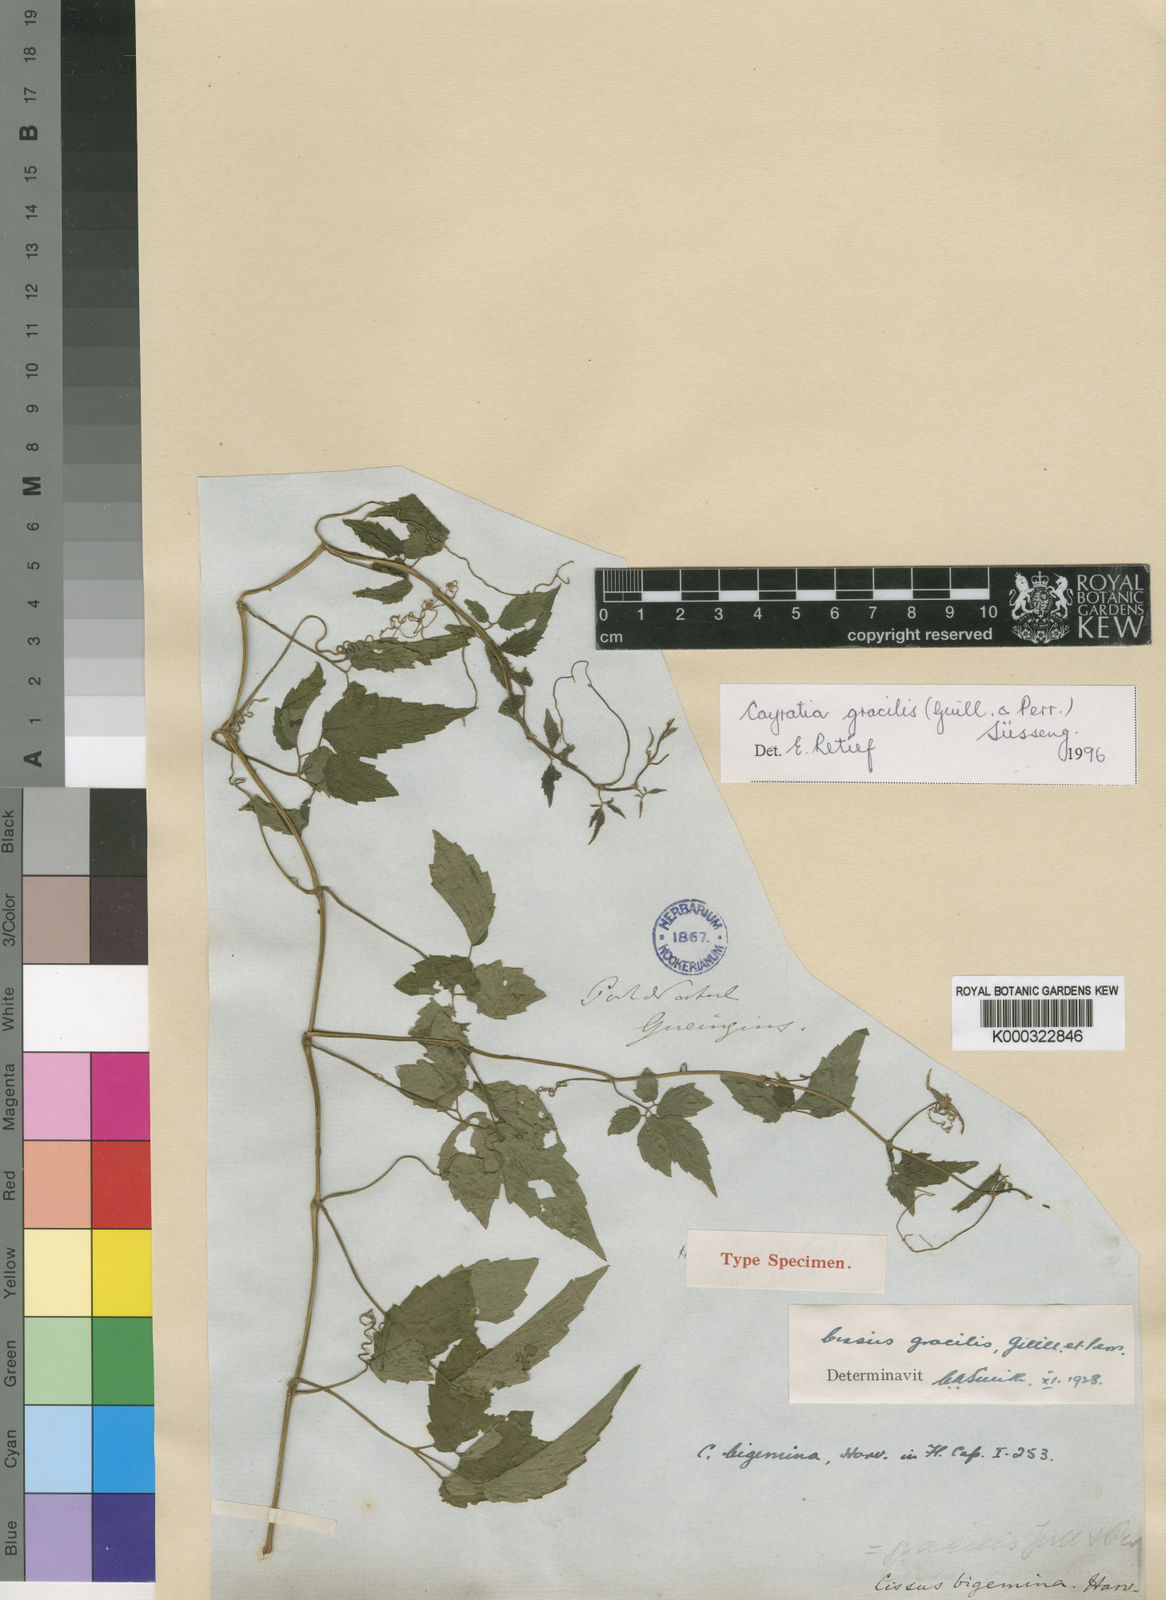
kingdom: Plantae
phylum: Tracheophyta
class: Magnoliopsida
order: Vitales
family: Vitaceae
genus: Afrocayratia
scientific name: Afrocayratia gracilis
